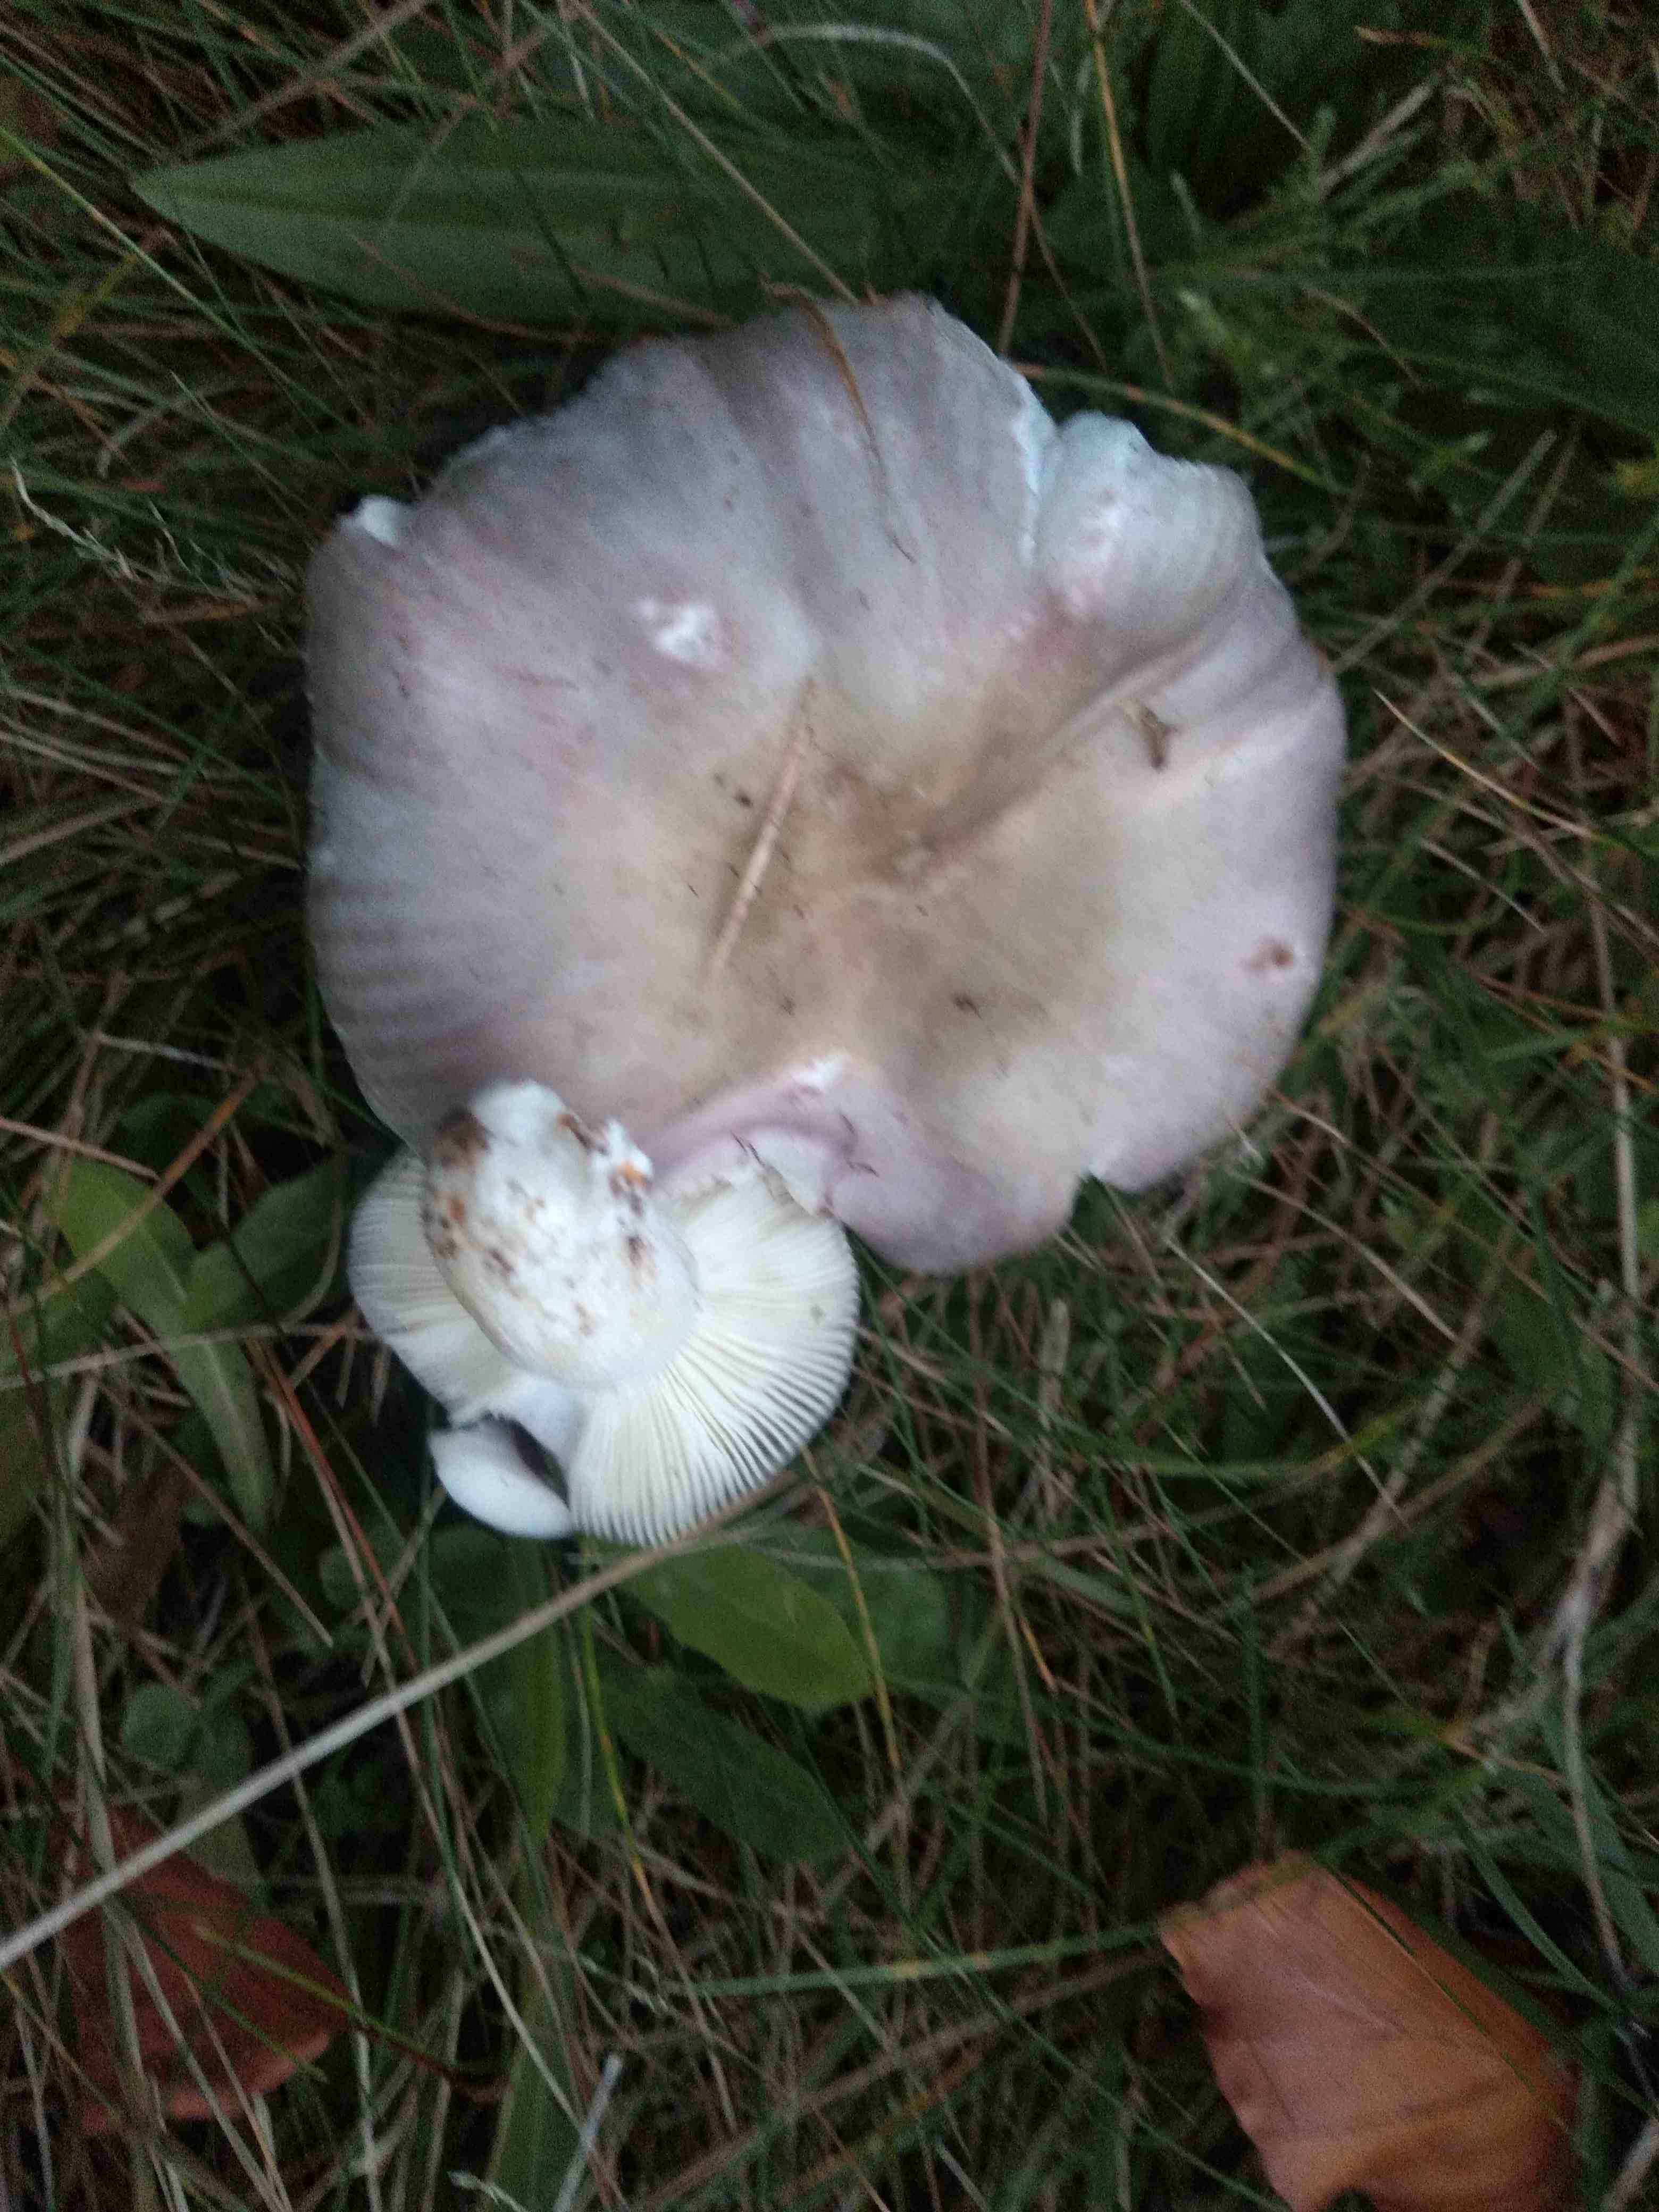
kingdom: Fungi
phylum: Basidiomycota
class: Agaricomycetes
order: Russulales
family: Russulaceae
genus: Russula
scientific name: Russula
